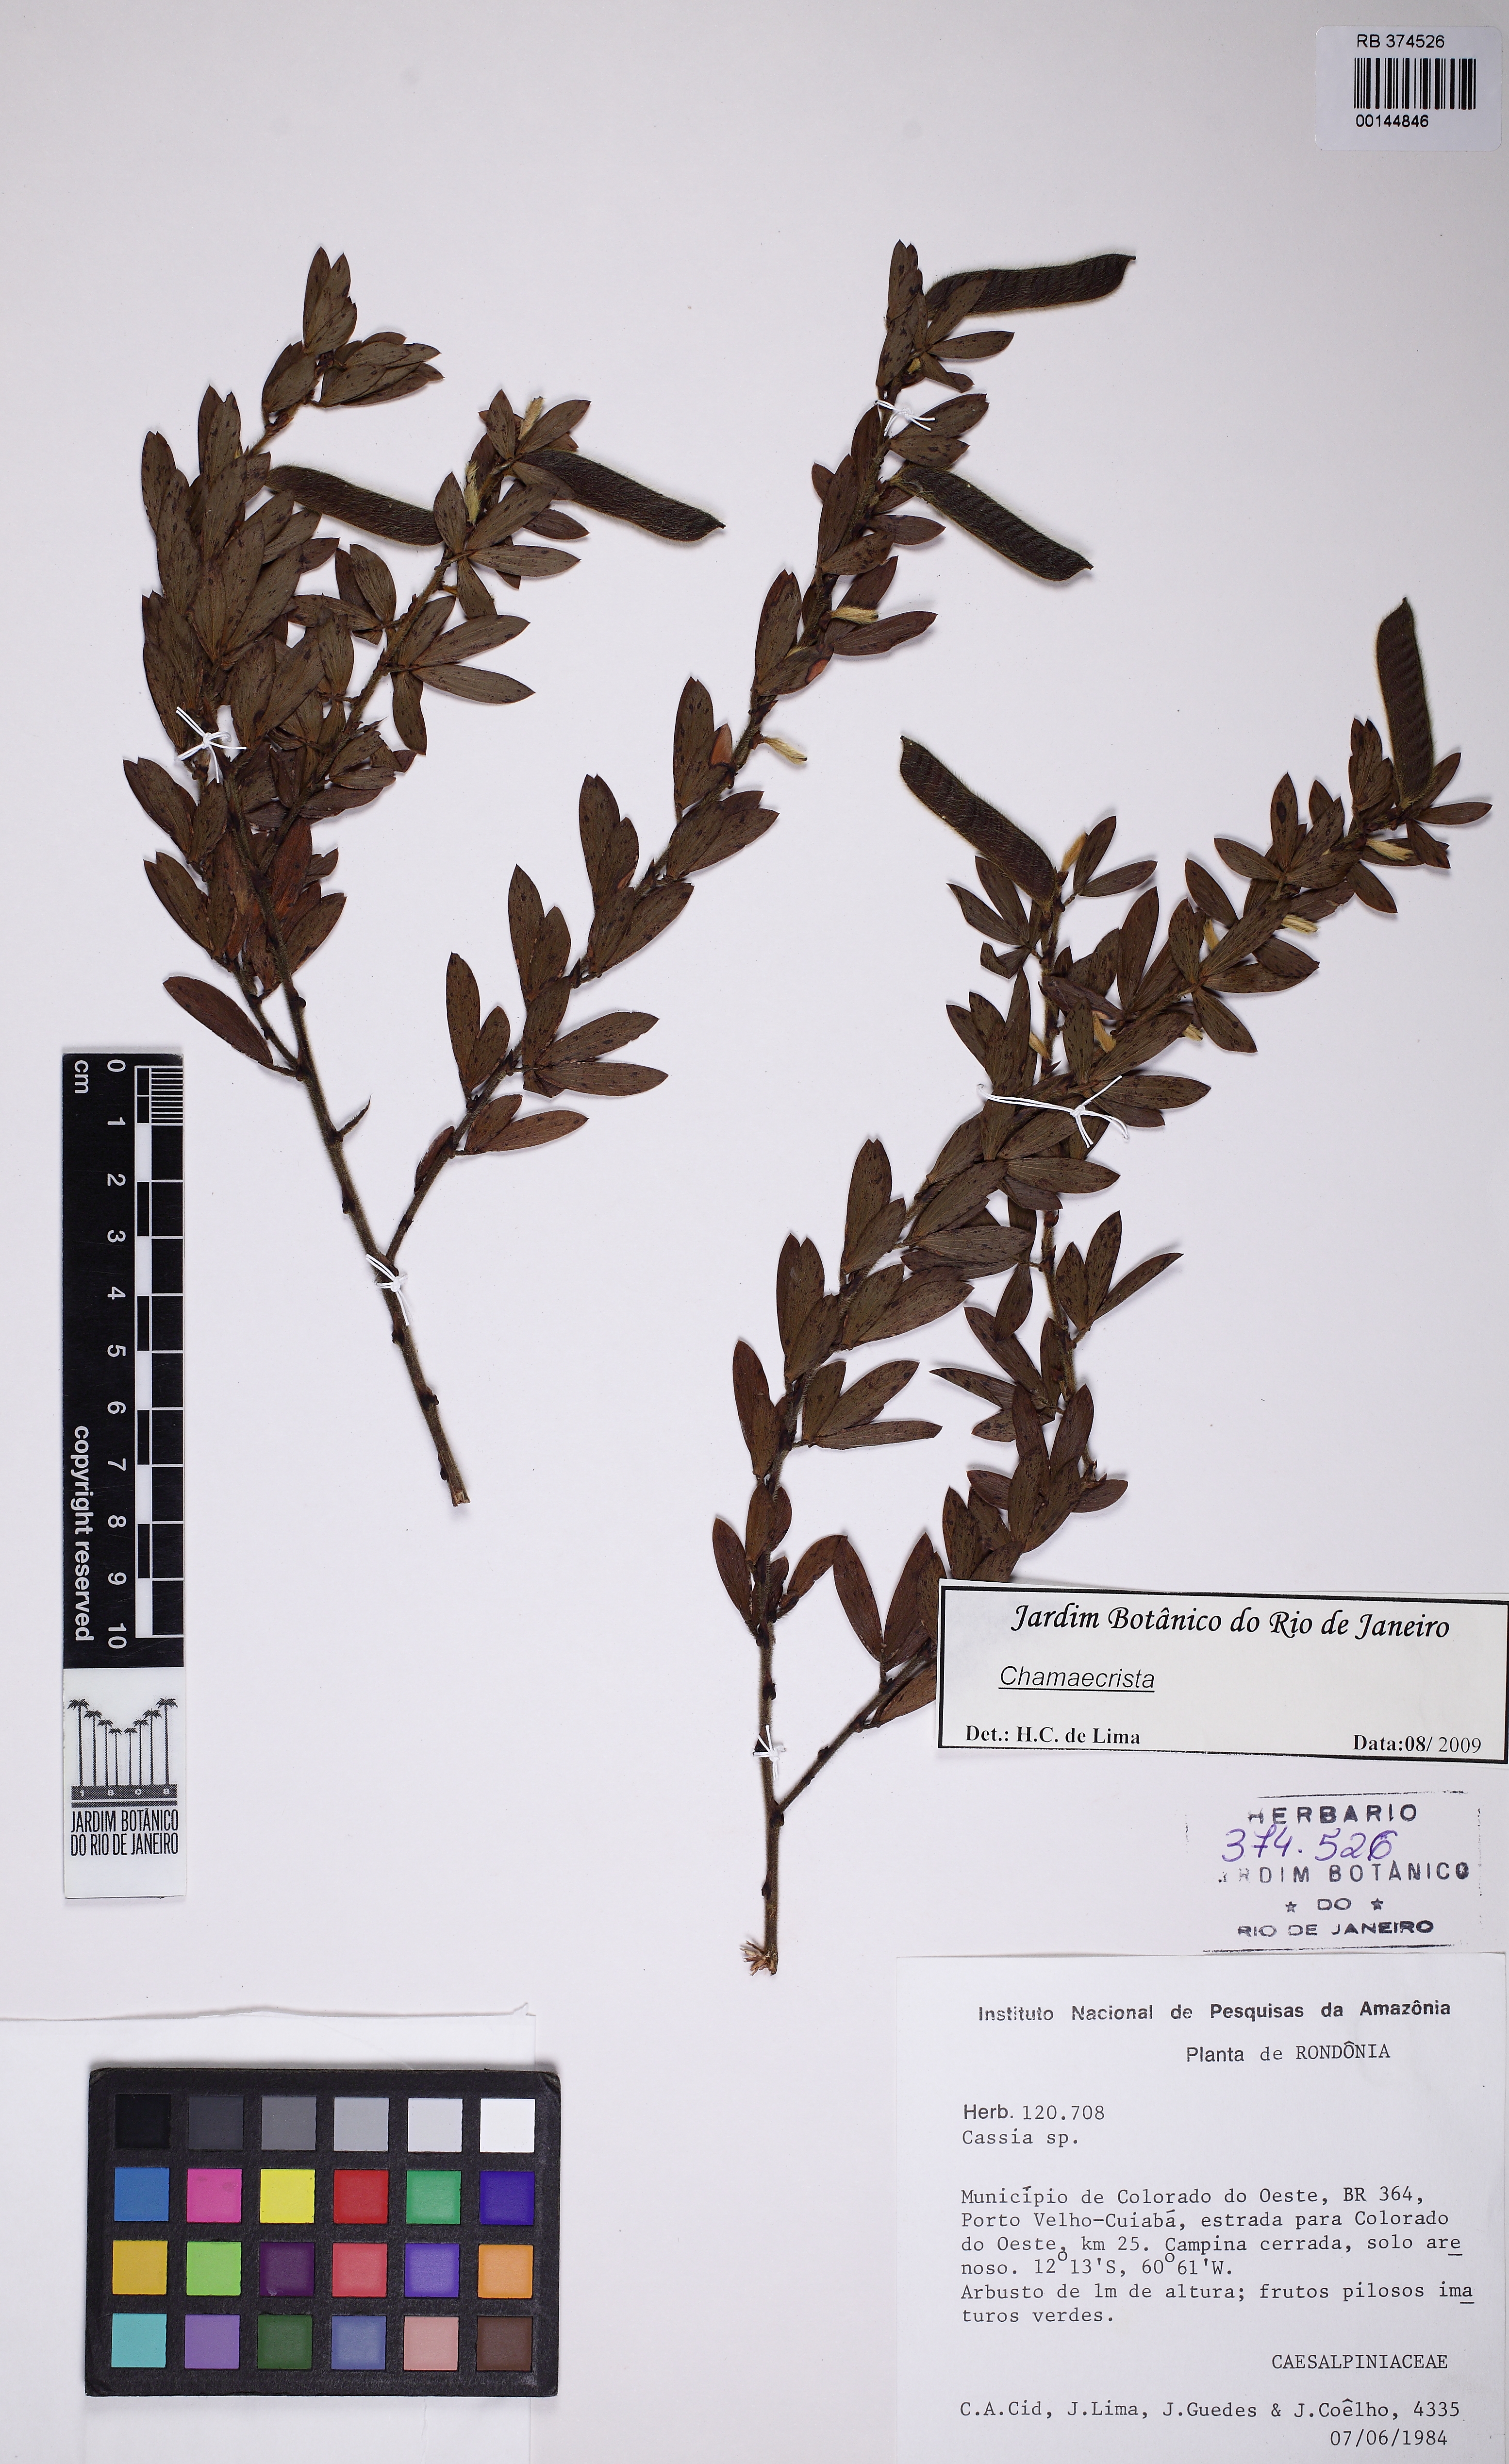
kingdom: Plantae
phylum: Tracheophyta
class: Magnoliopsida
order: Fabales
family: Fabaceae
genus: Chamaecrista
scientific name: Chamaecrista
